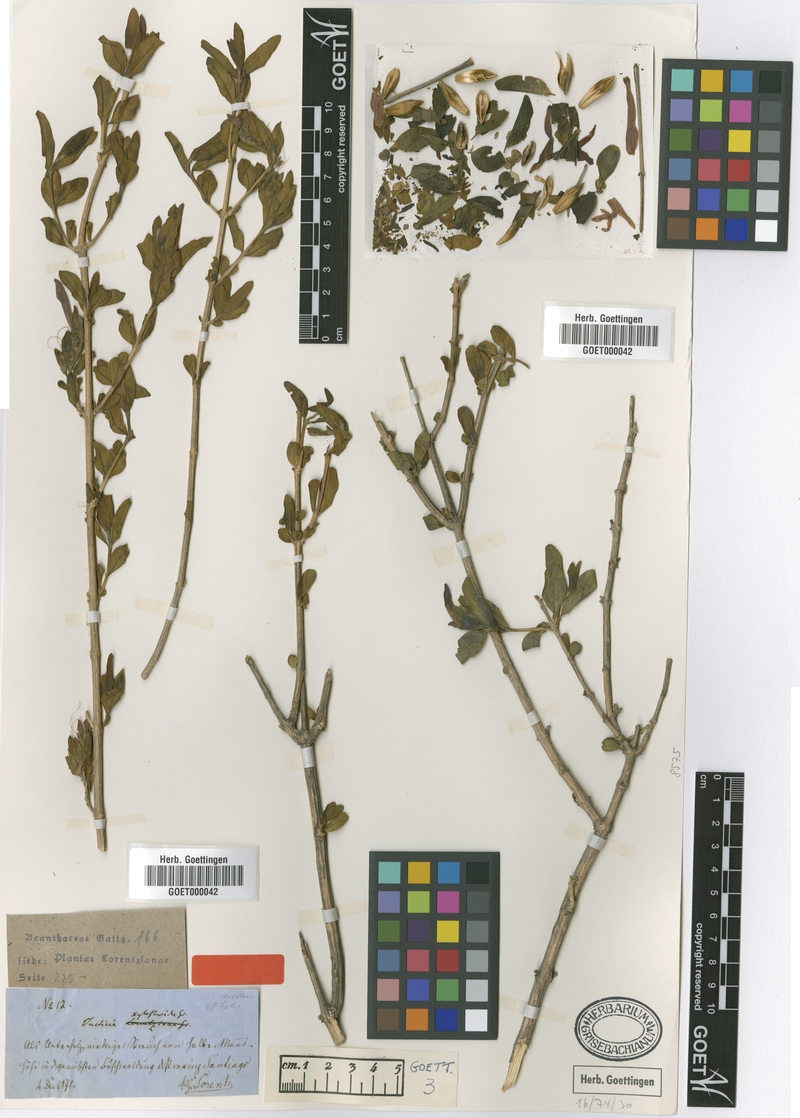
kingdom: Plantae
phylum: Tracheophyta
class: Magnoliopsida
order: Lamiales
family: Acanthaceae
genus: Justicia
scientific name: Justicia xylosteoides
